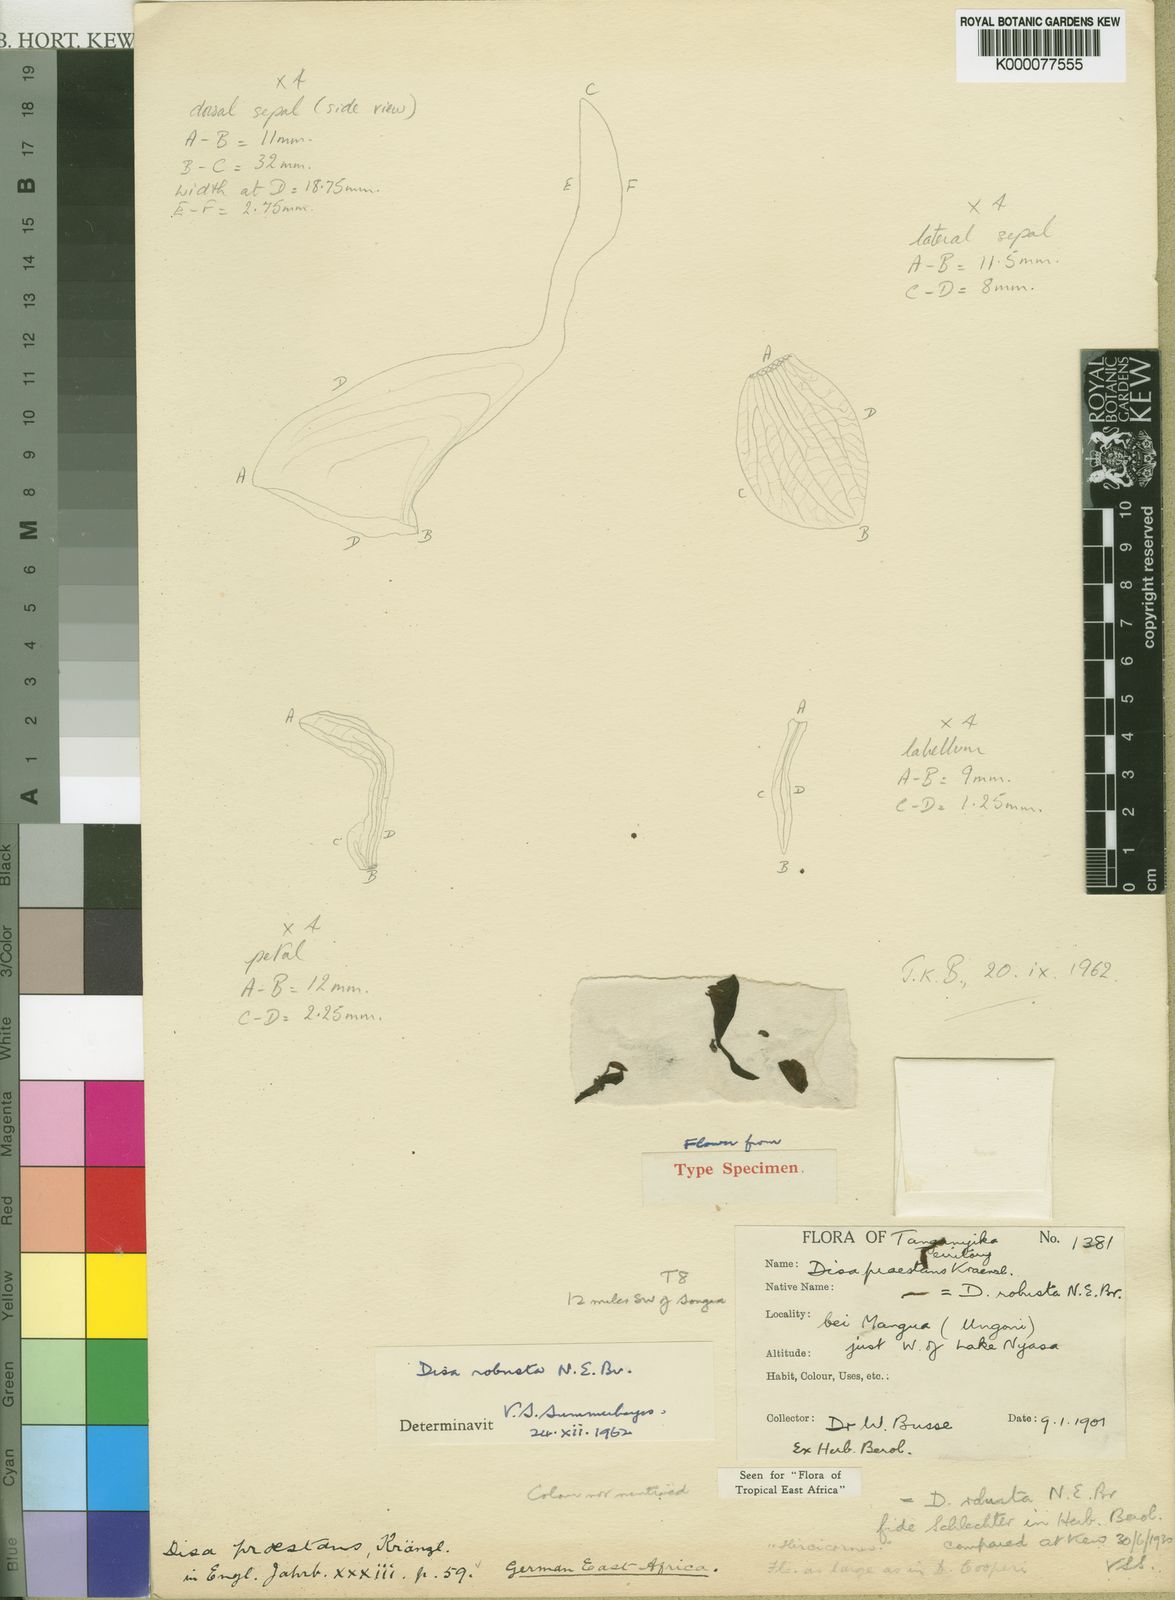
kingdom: Plantae
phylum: Tracheophyta
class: Liliopsida
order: Asparagales
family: Orchidaceae
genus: Disa
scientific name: Disa robusta
